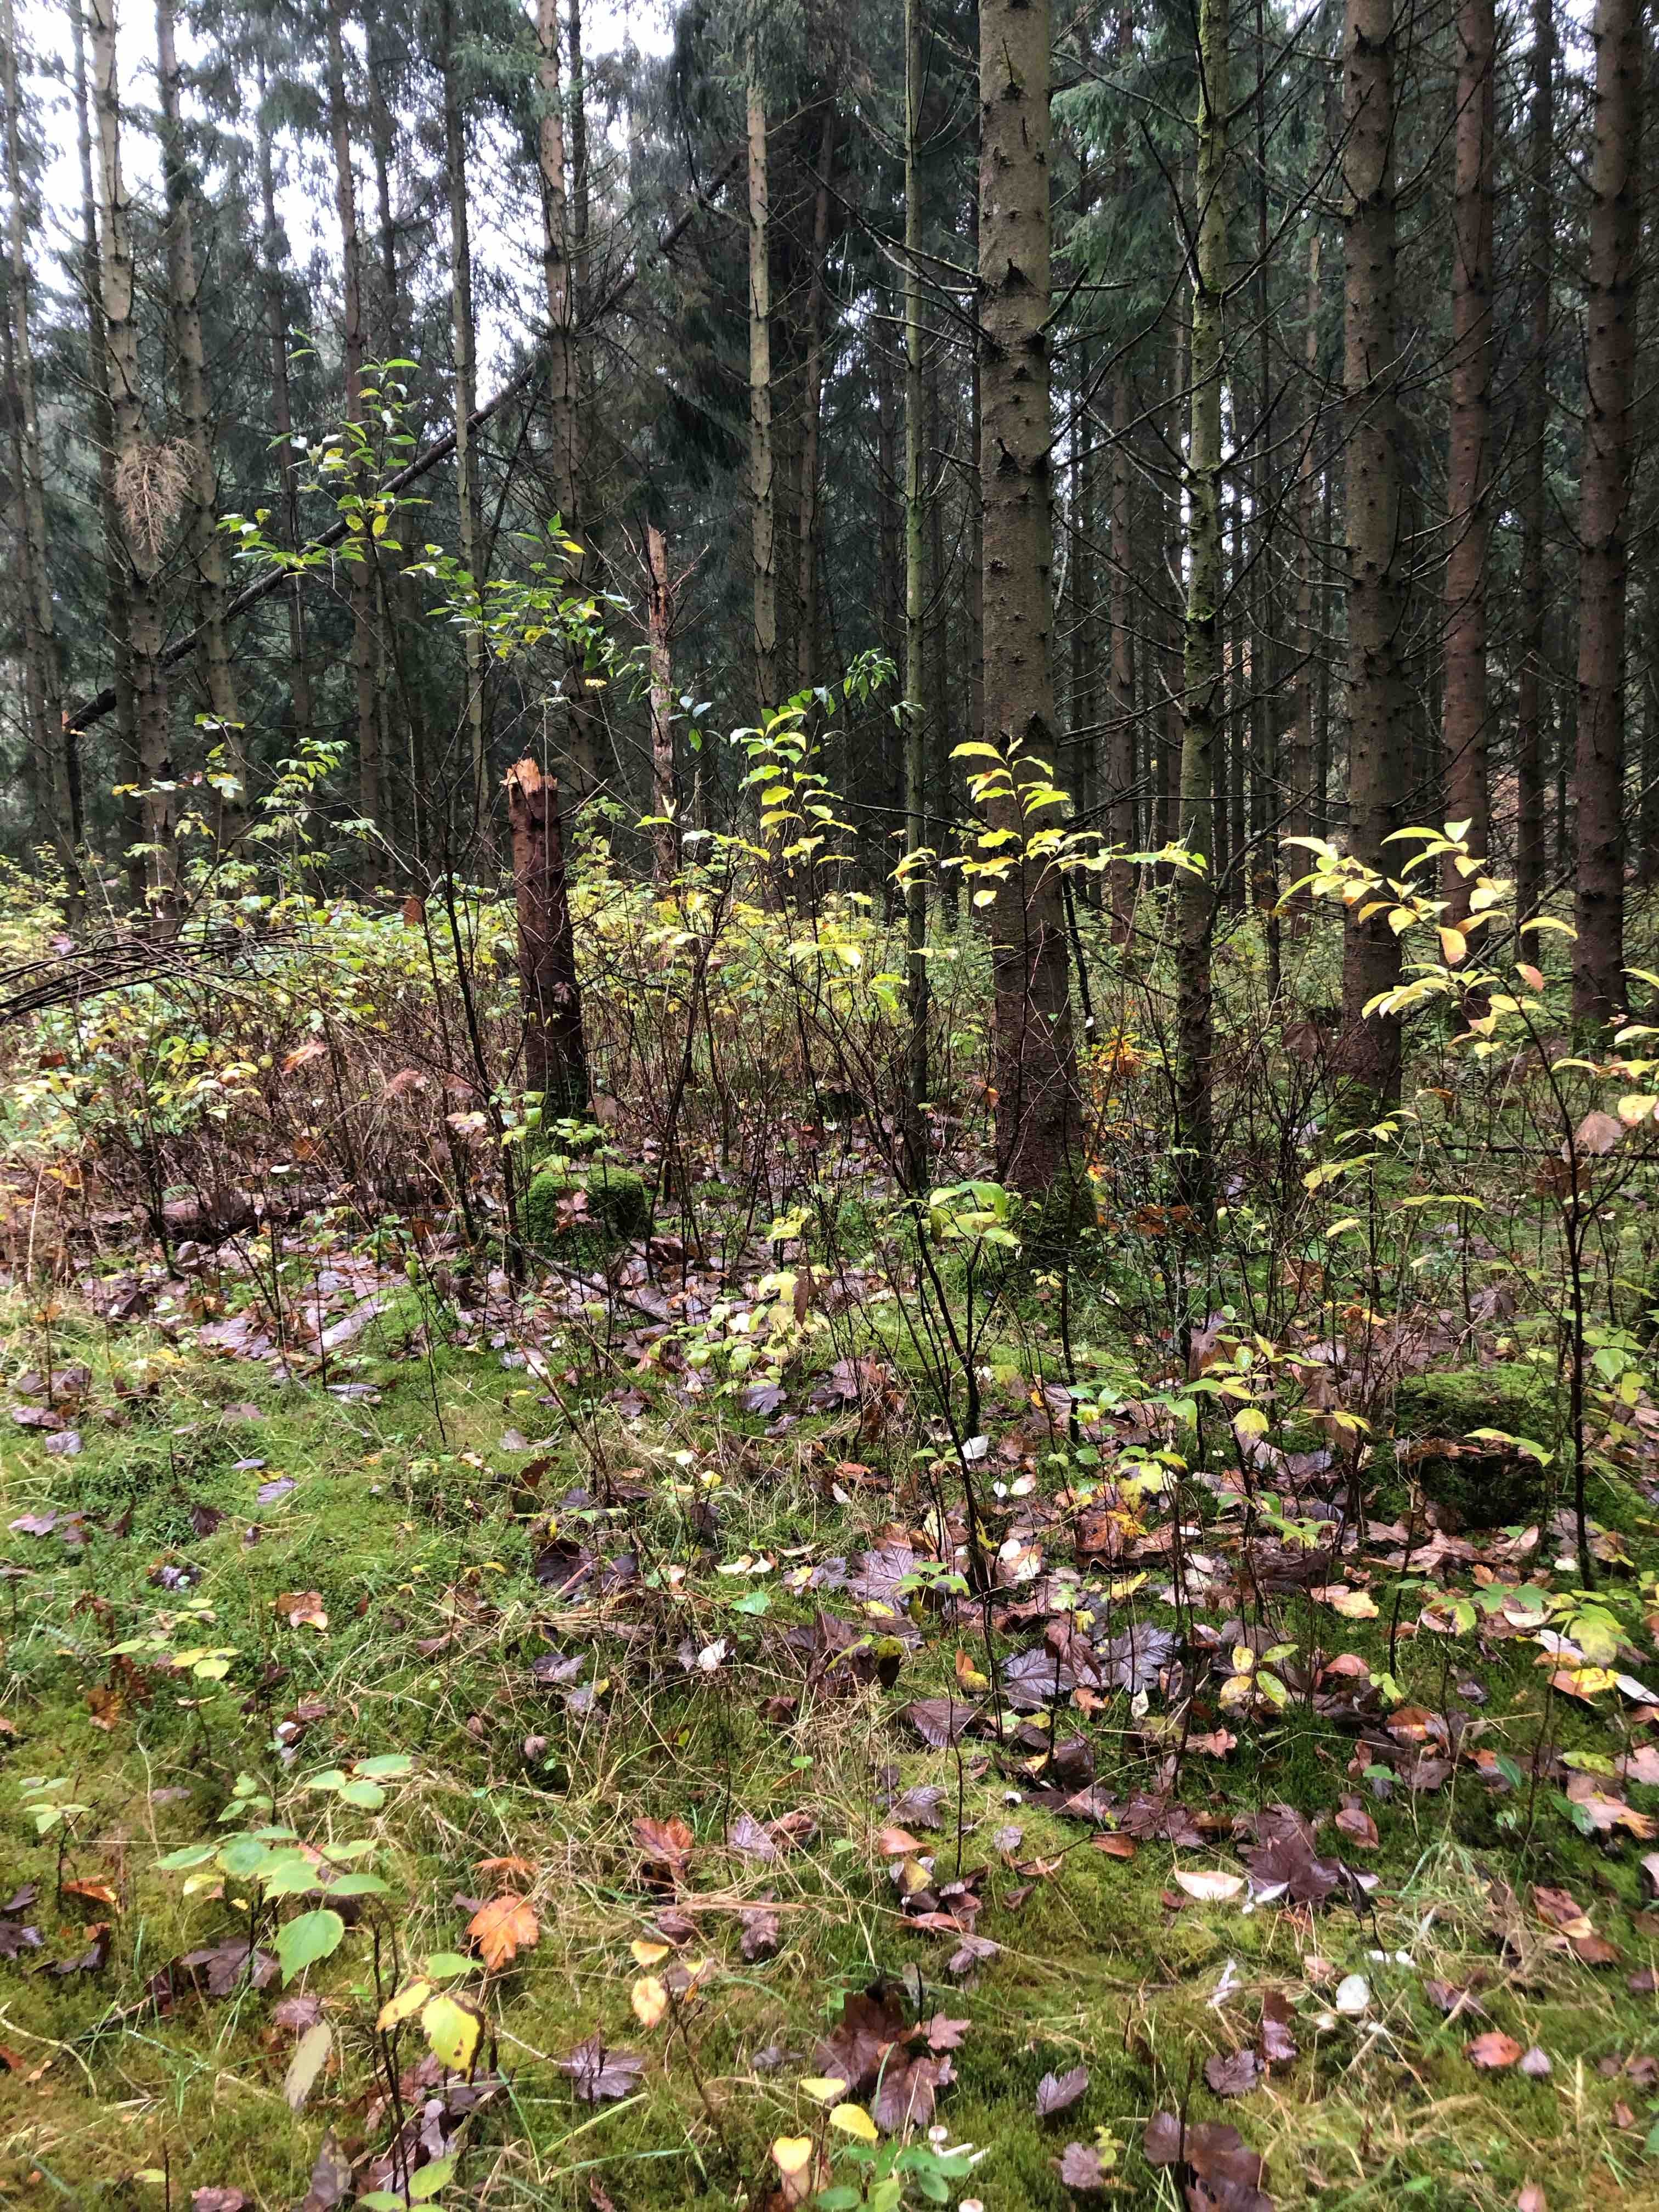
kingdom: Fungi
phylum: Basidiomycota
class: Agaricomycetes
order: Agaricales
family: Tricholomataceae
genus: Cystoderma
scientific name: Cystoderma amianthinum
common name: okkergul grynhat
